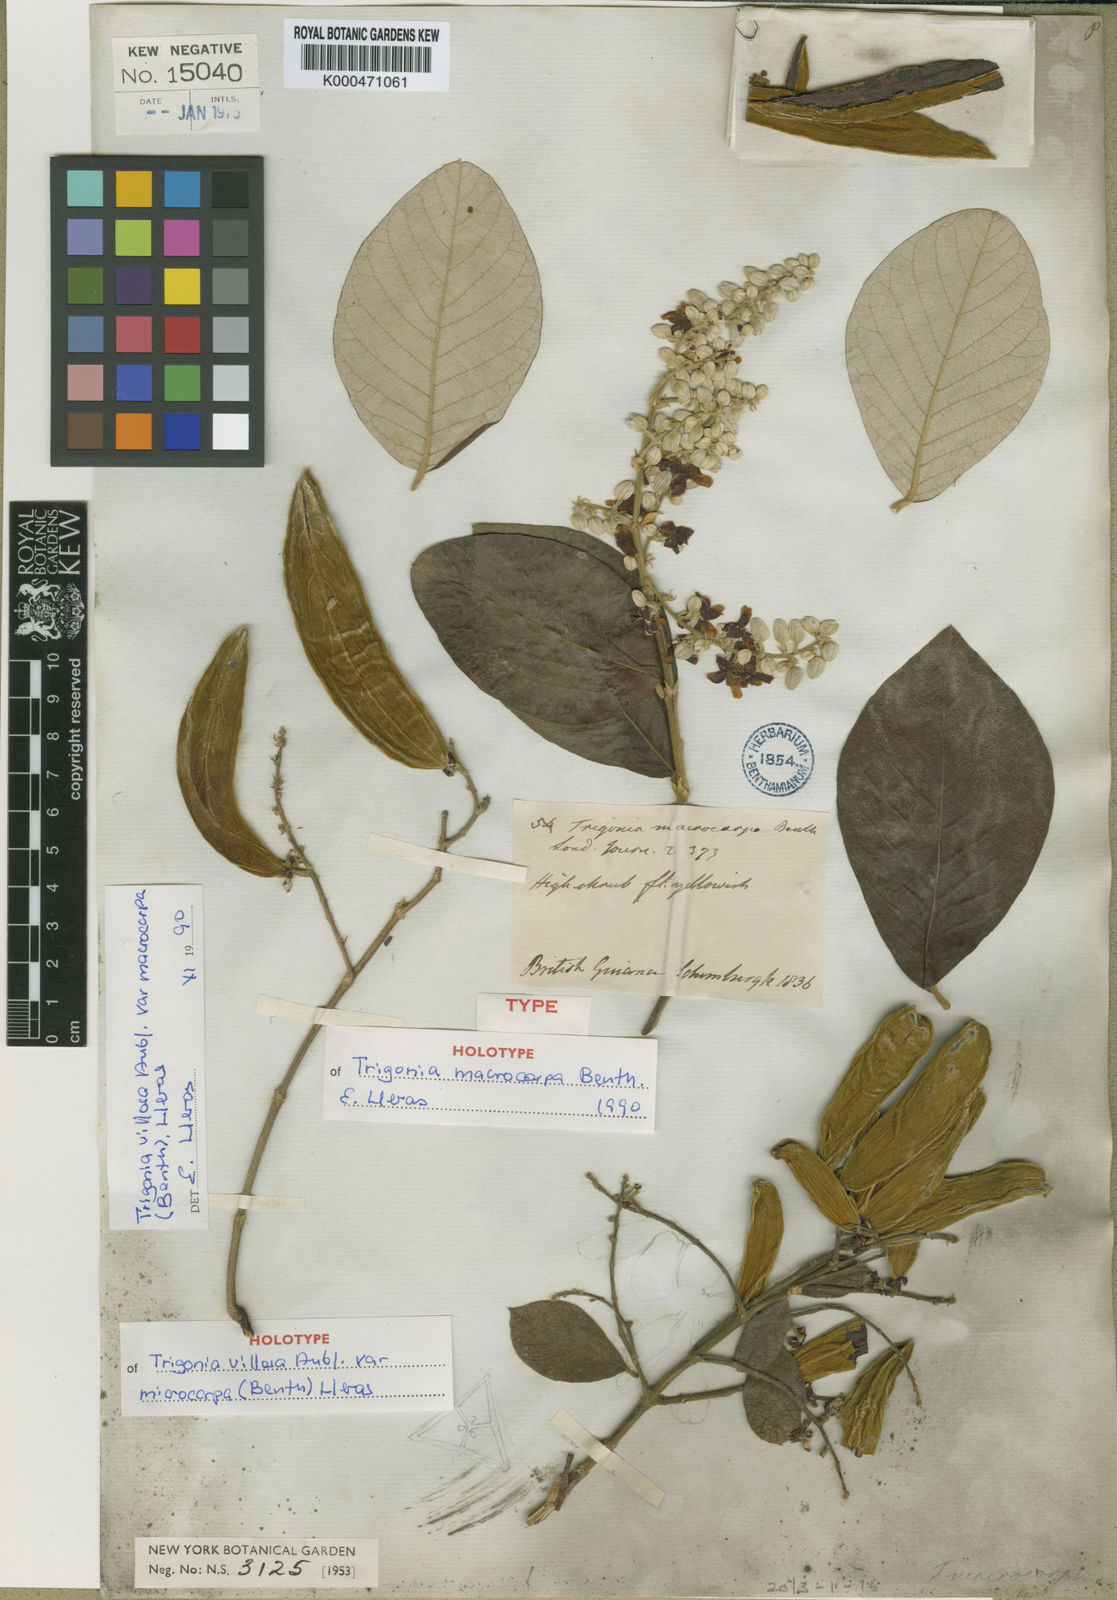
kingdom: Plantae
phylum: Tracheophyta
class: Magnoliopsida
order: Malpighiales
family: Trigoniaceae
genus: Trigonia
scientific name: Trigonia villosa
